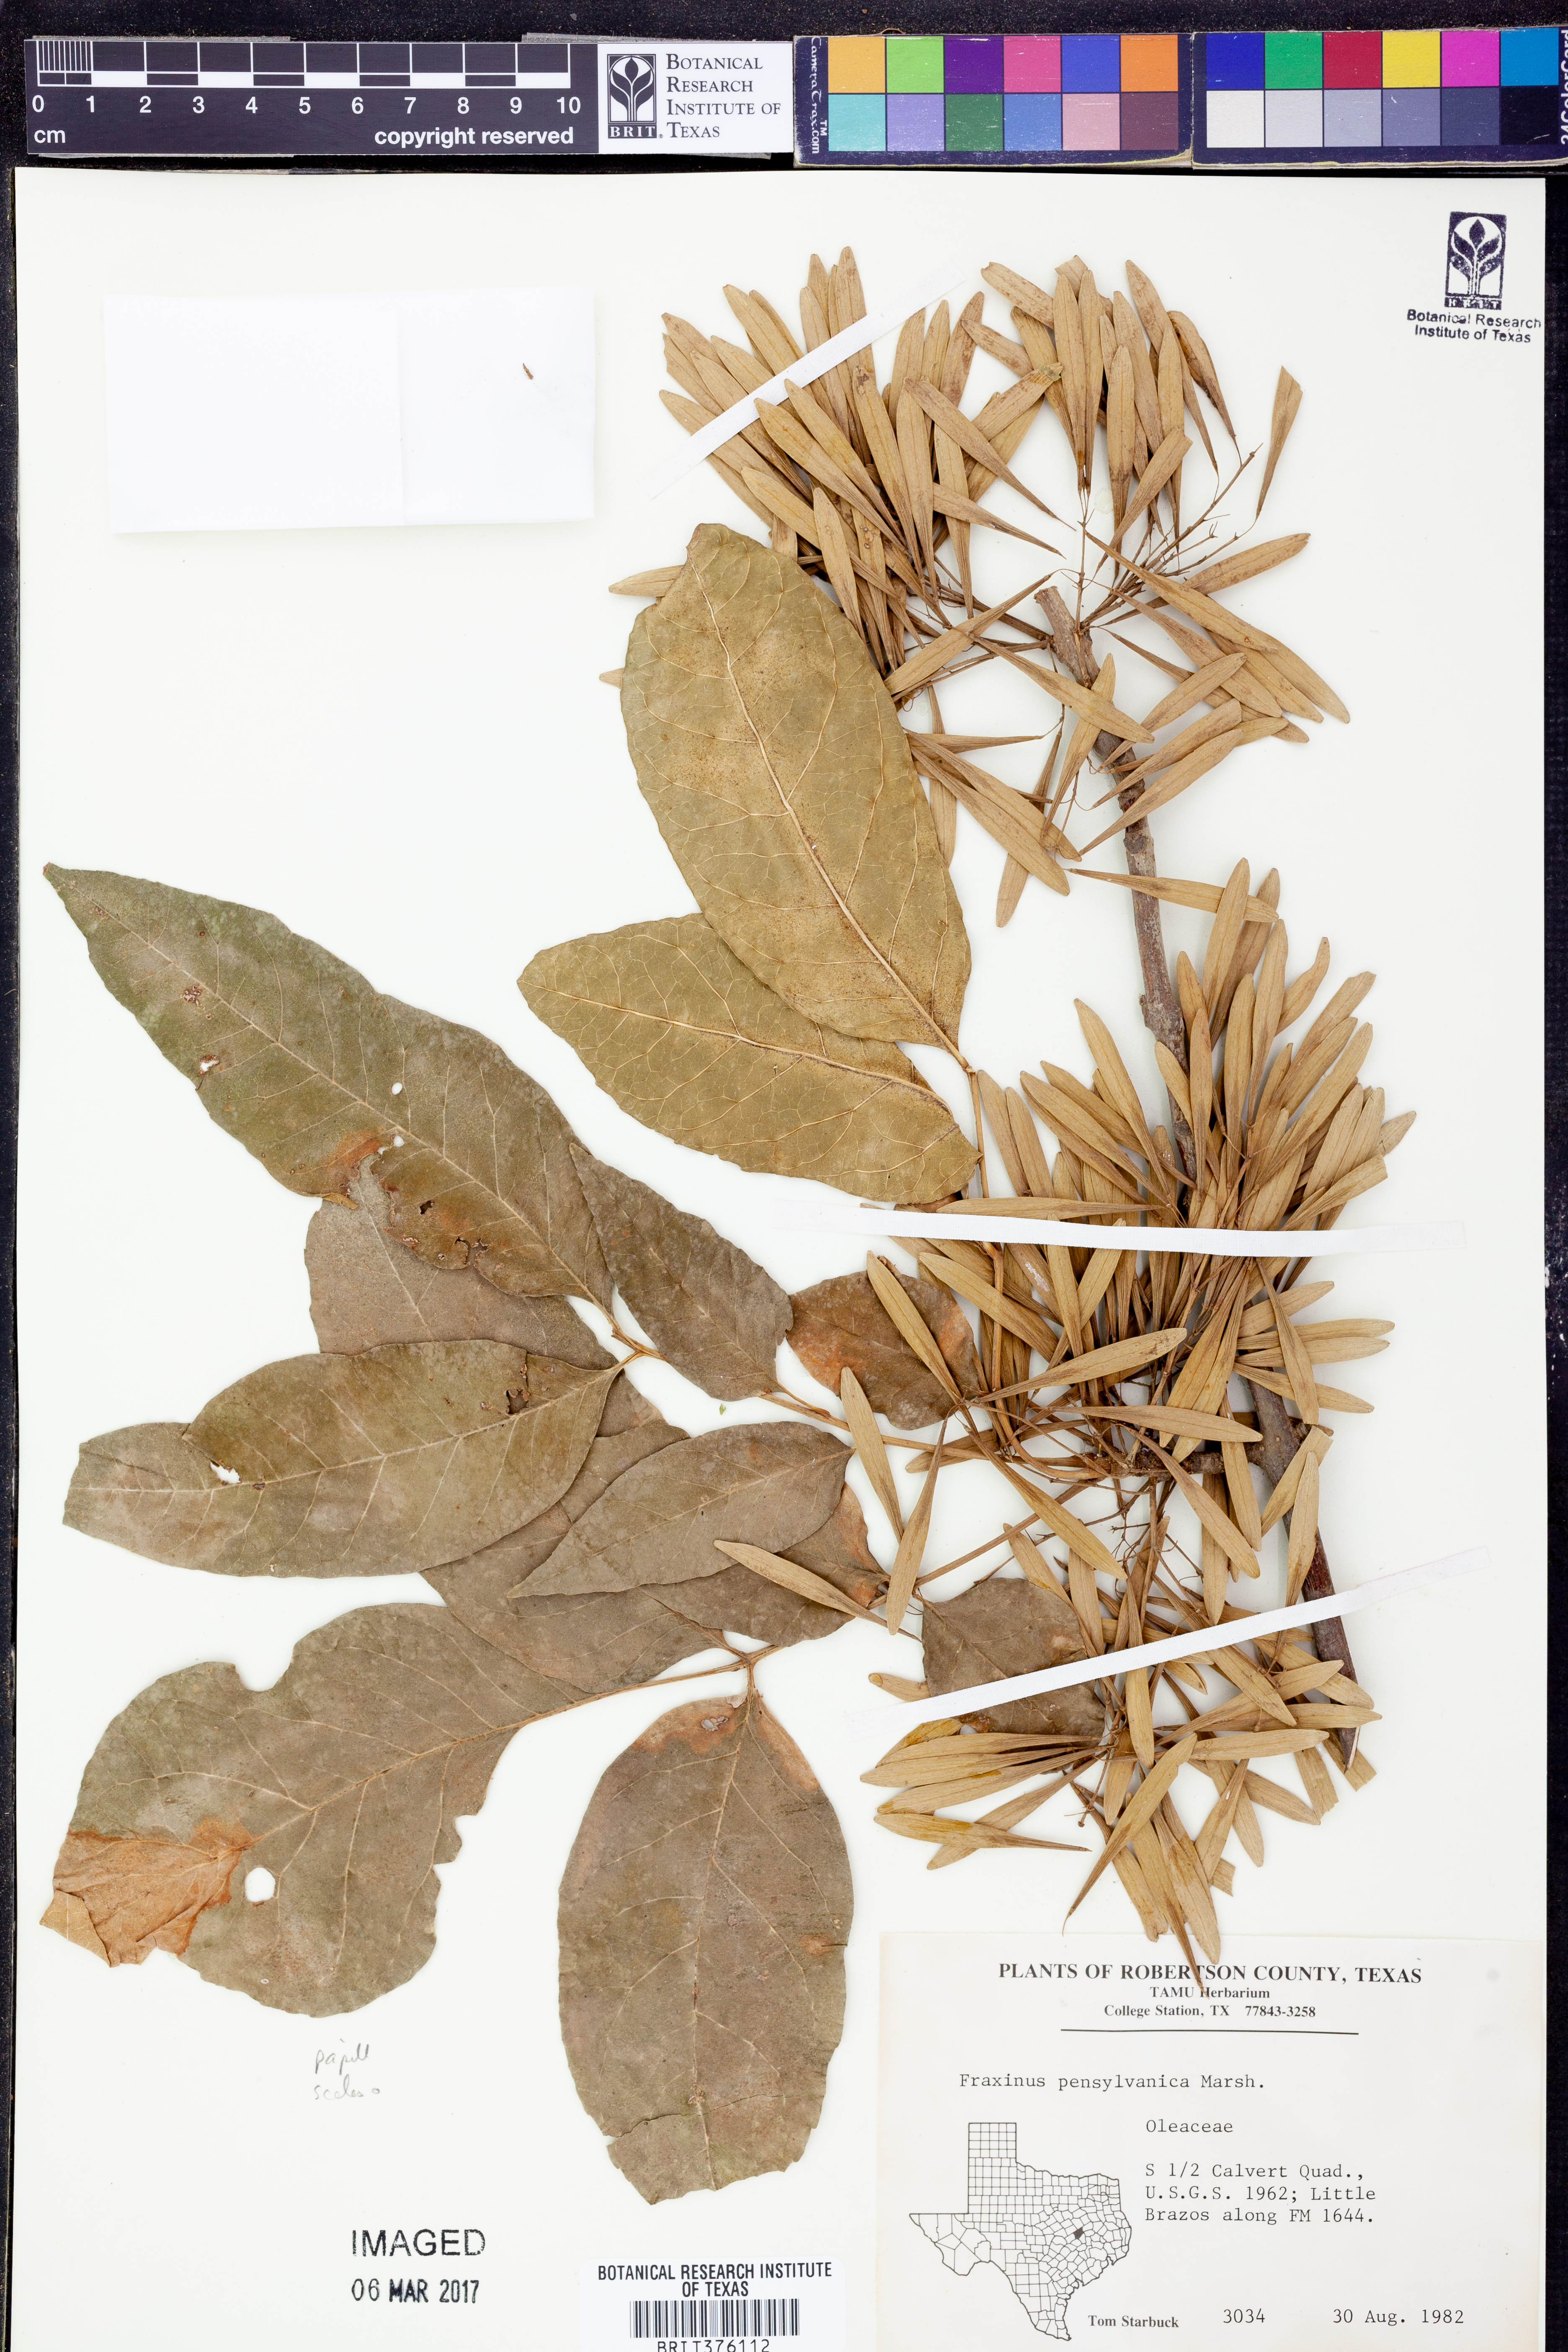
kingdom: Plantae
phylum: Tracheophyta
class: Magnoliopsida
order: Lamiales
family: Oleaceae
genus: Fraxinus
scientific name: Fraxinus pennsylvanica
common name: Green ash
